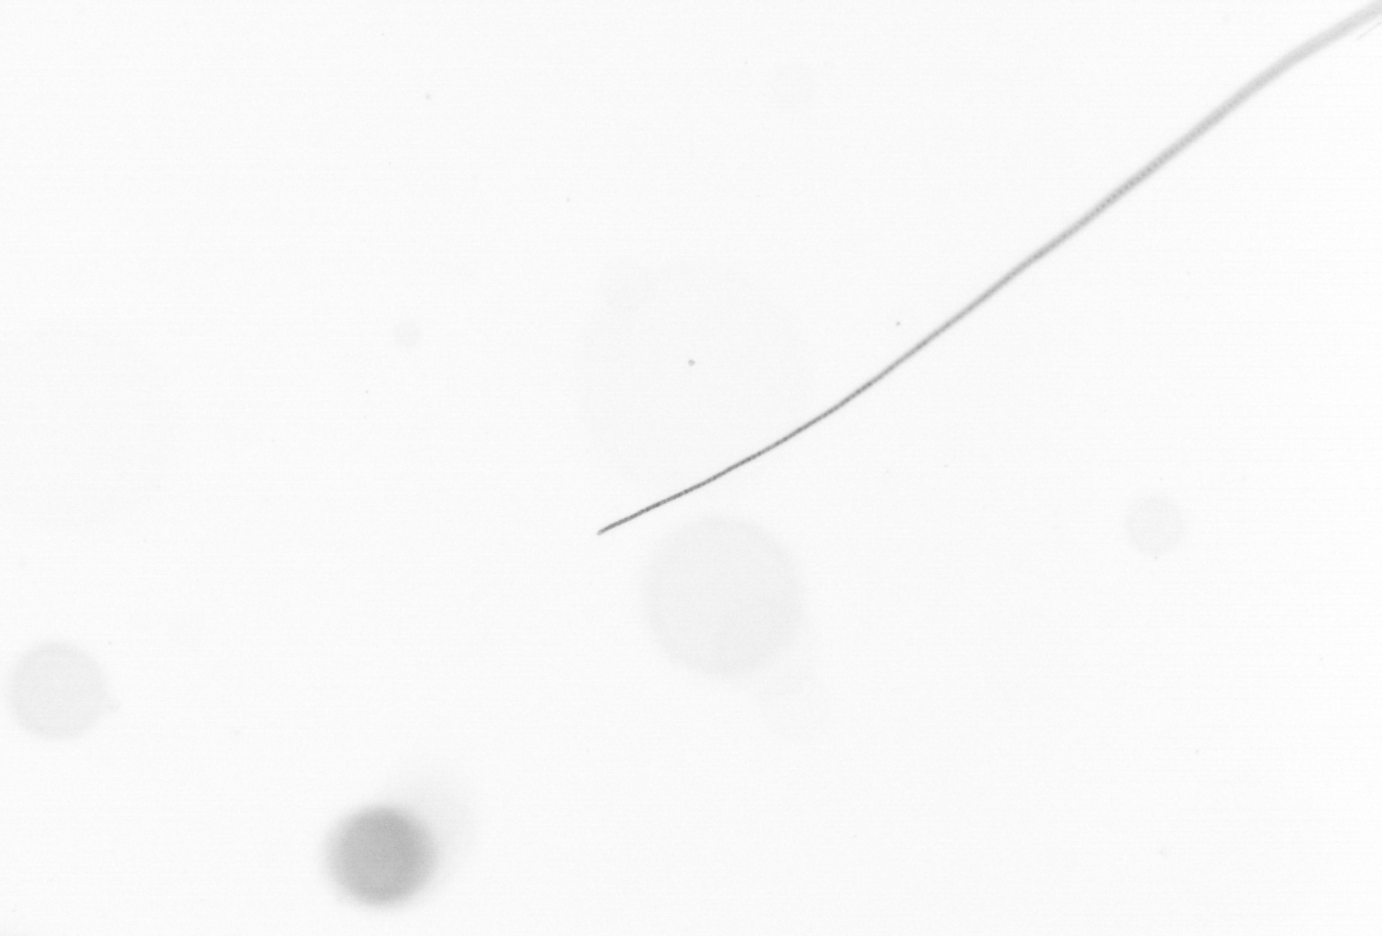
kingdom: Chromista
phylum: Ochrophyta
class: Bacillariophyceae
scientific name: Bacillariophyceae
